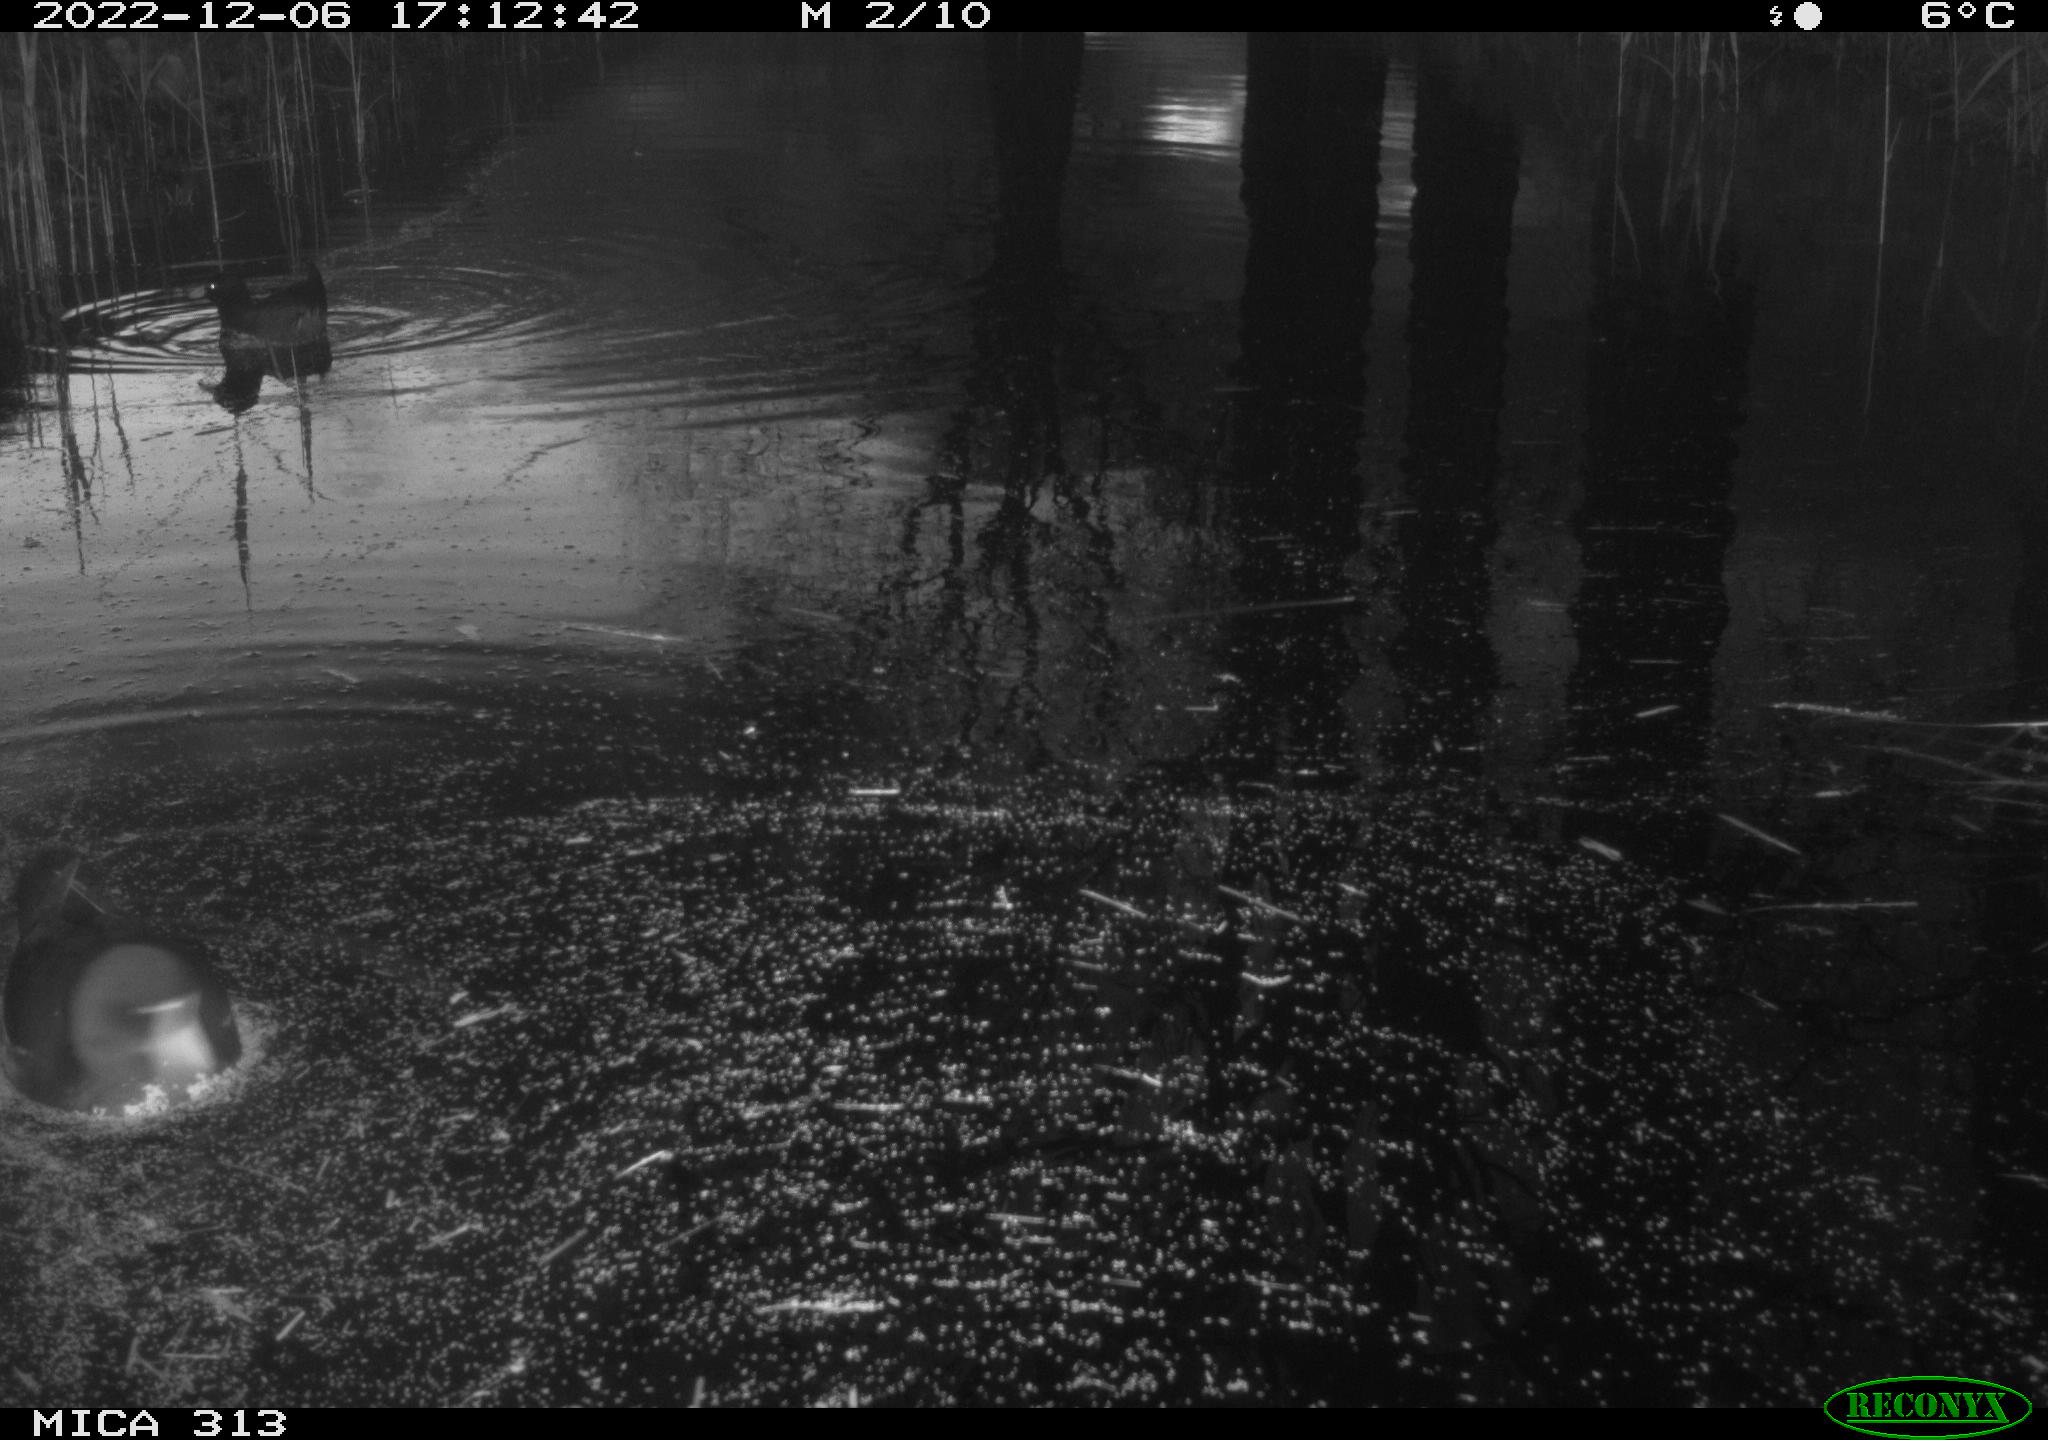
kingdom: Animalia
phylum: Chordata
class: Aves
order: Gruiformes
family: Rallidae
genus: Gallinula
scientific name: Gallinula chloropus
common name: Common moorhen
